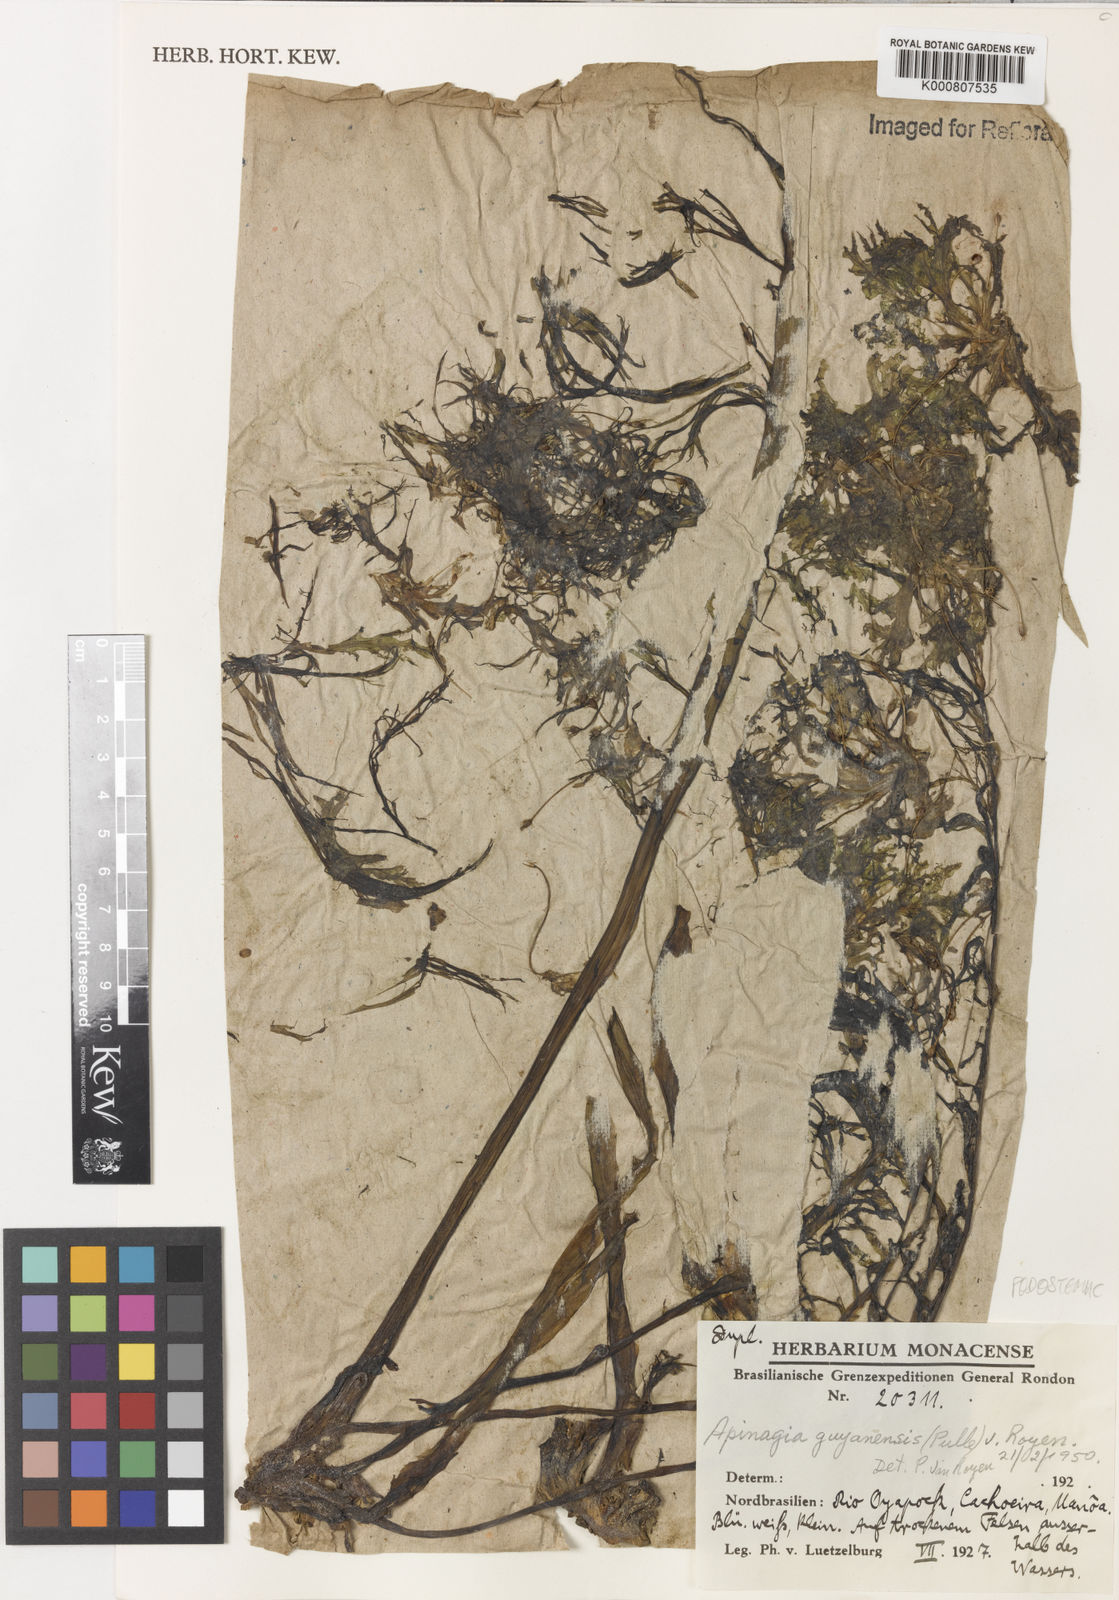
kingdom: Plantae
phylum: Tracheophyta
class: Magnoliopsida
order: Malpighiales
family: Podostemaceae
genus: Apinagia
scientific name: Apinagia guyanensis
